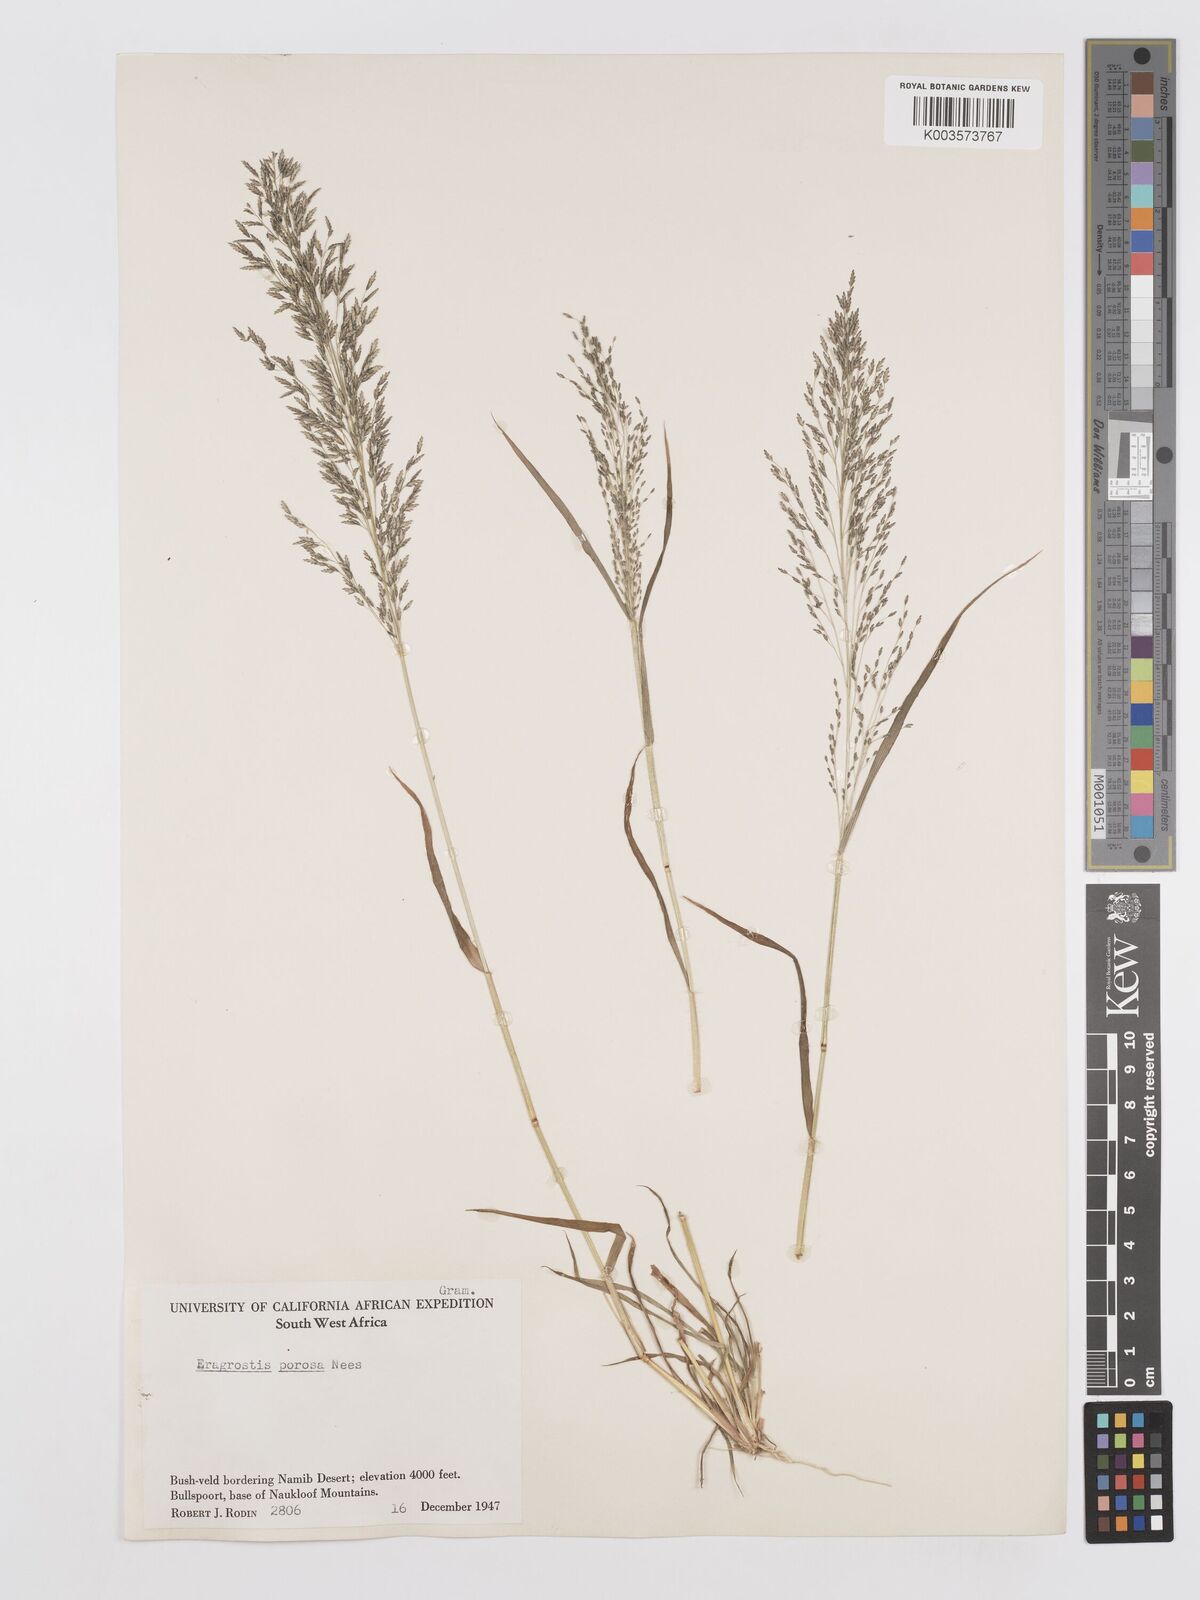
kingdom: Plantae
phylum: Tracheophyta
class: Liliopsida
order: Poales
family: Poaceae
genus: Eragrostis
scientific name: Eragrostis porosa
